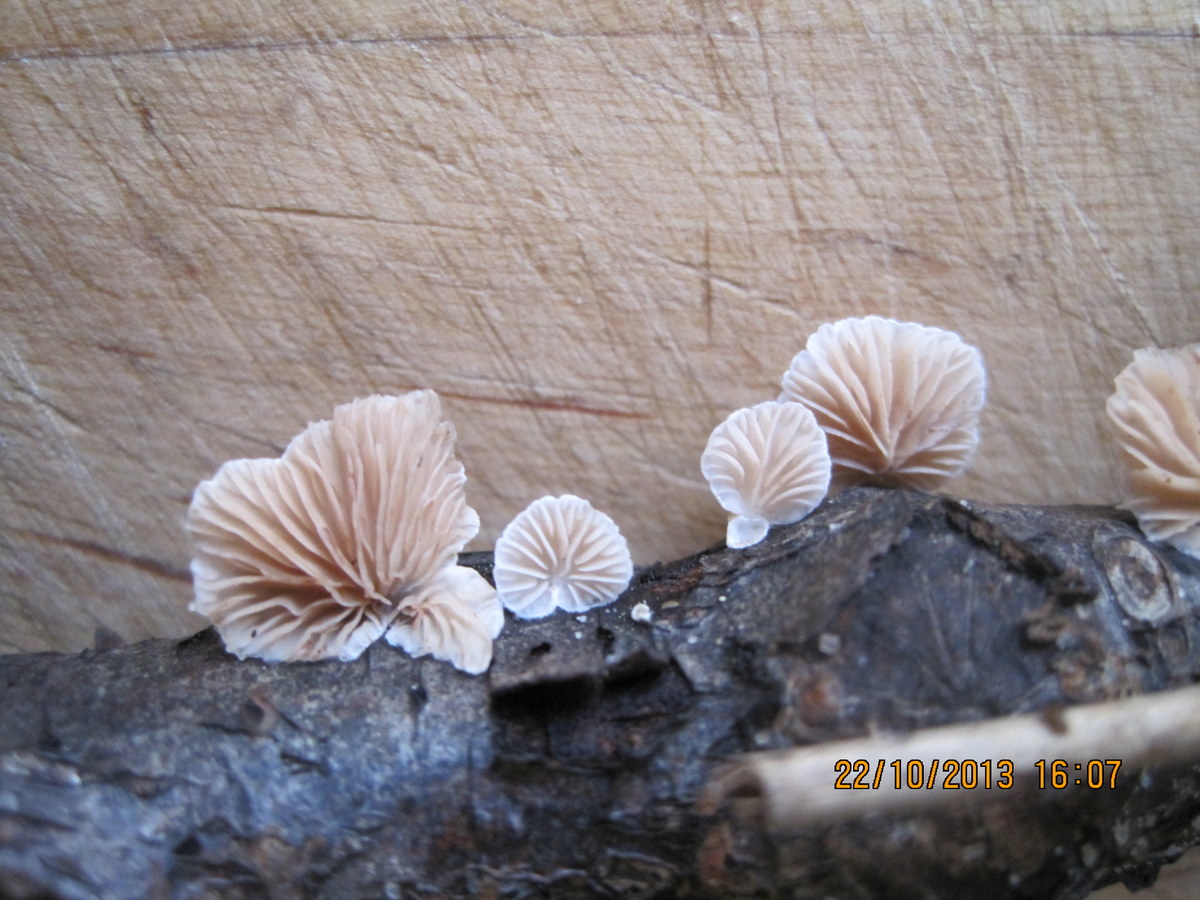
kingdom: Fungi
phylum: Basidiomycota
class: Agaricomycetes
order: Agaricales
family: Crepidotaceae
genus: Crepidotus
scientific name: Crepidotus cesatii
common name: almindelig muslingesvamp
